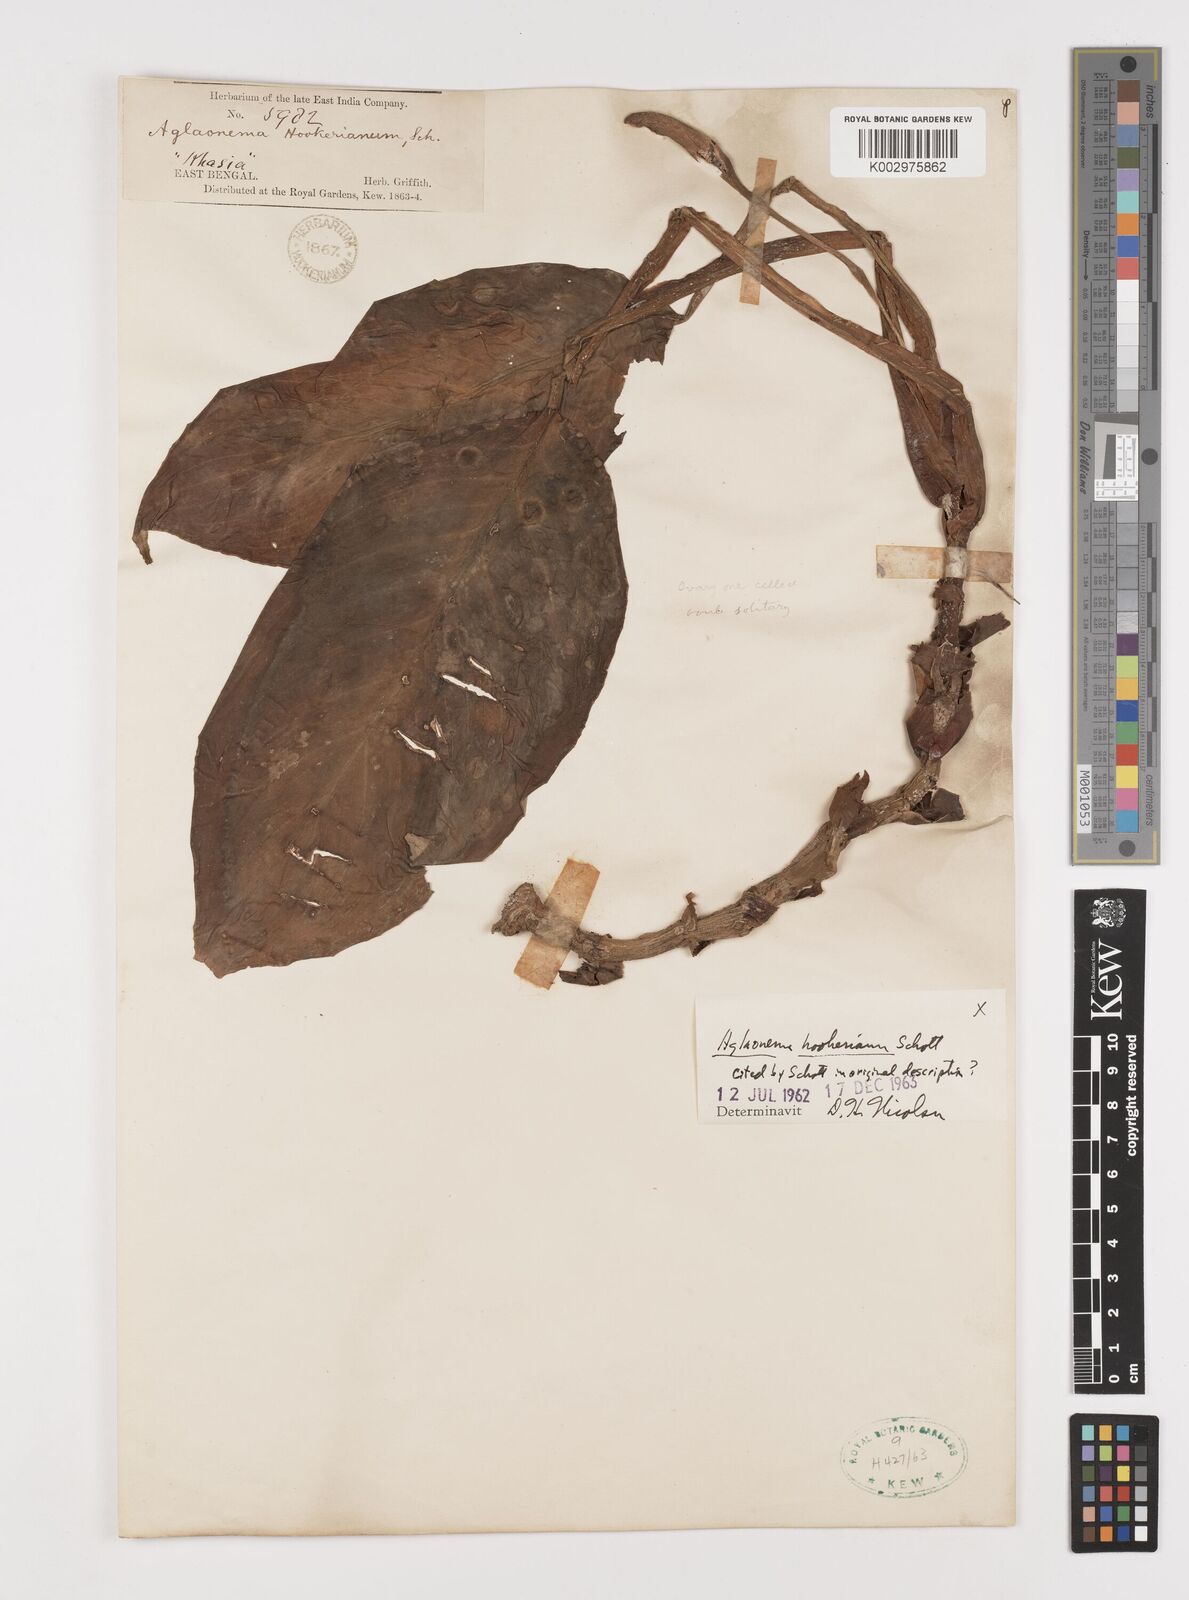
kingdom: Plantae
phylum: Tracheophyta
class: Liliopsida
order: Alismatales
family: Araceae
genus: Aglaonema
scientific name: Aglaonema hookerianum
